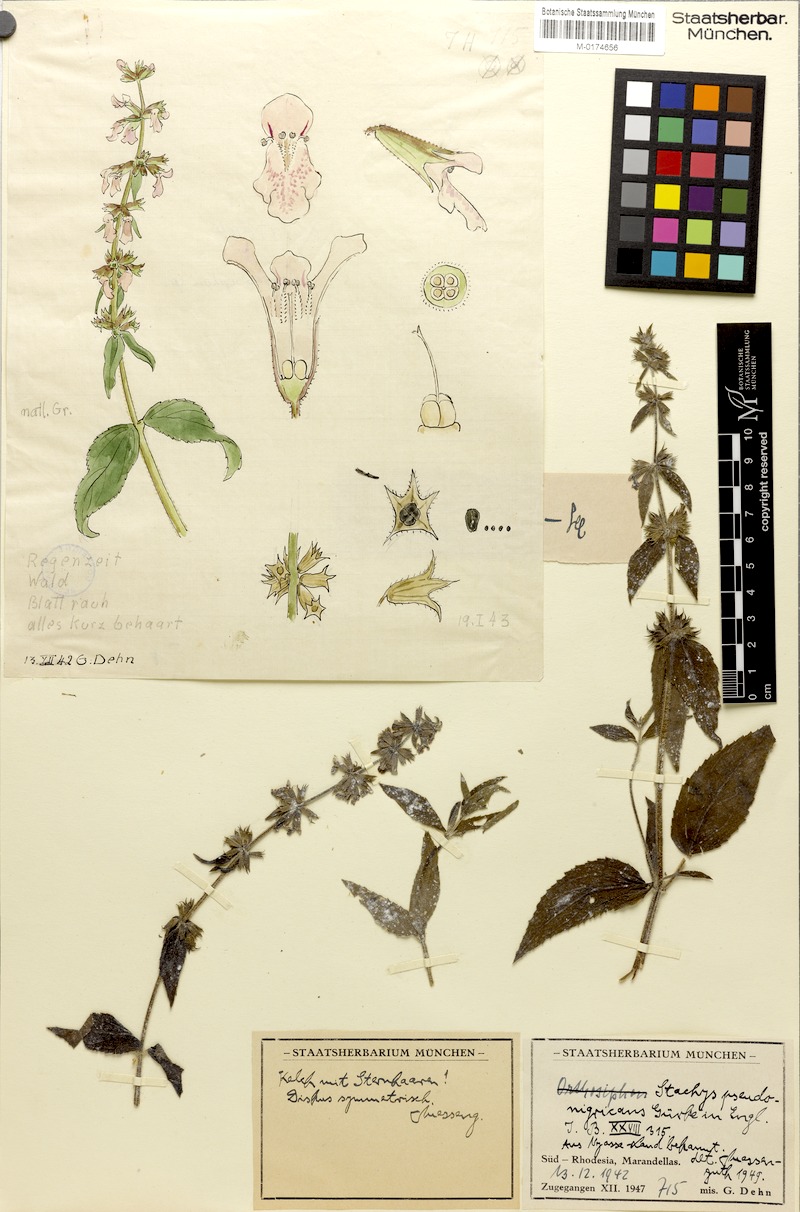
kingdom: Plantae
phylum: Tracheophyta
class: Magnoliopsida
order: Lamiales
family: Lamiaceae
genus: Stachys
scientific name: Stachys pseudonigricans
